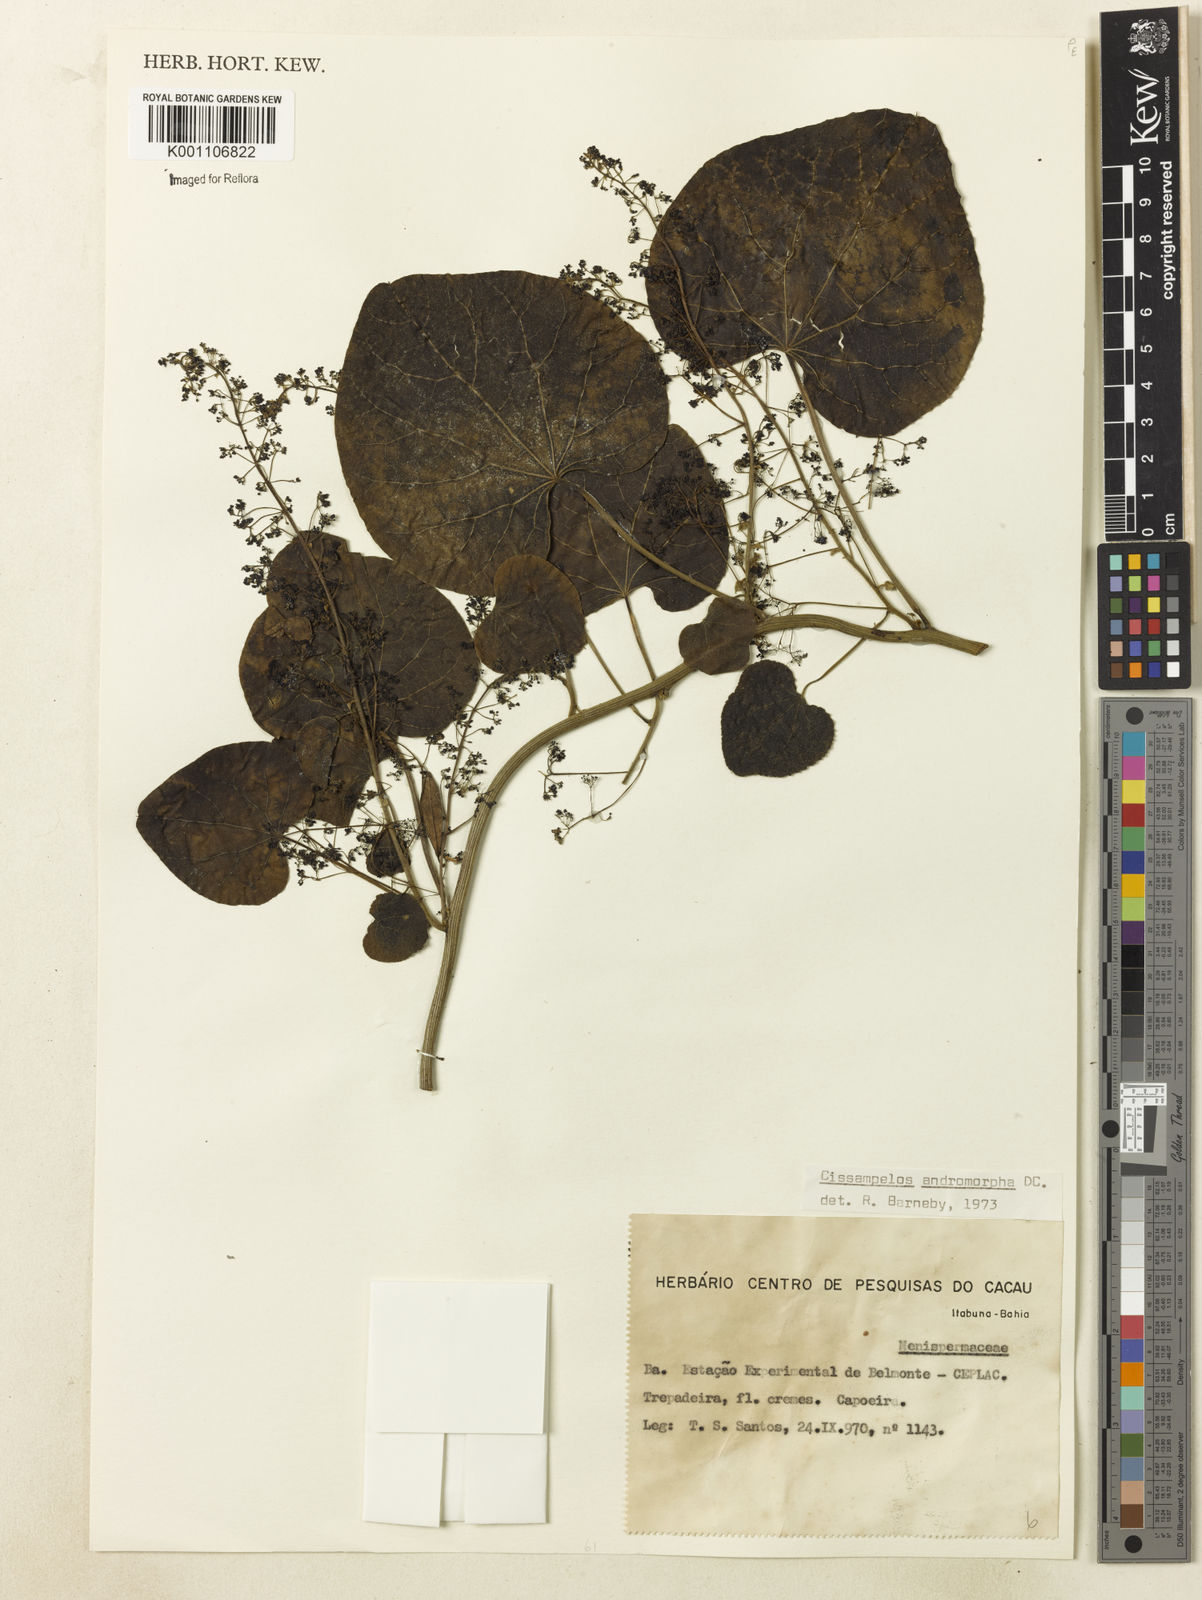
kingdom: Plantae
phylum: Tracheophyta
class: Magnoliopsida
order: Ranunculales
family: Menispermaceae
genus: Cissampelos
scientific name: Cissampelos andromorpha
